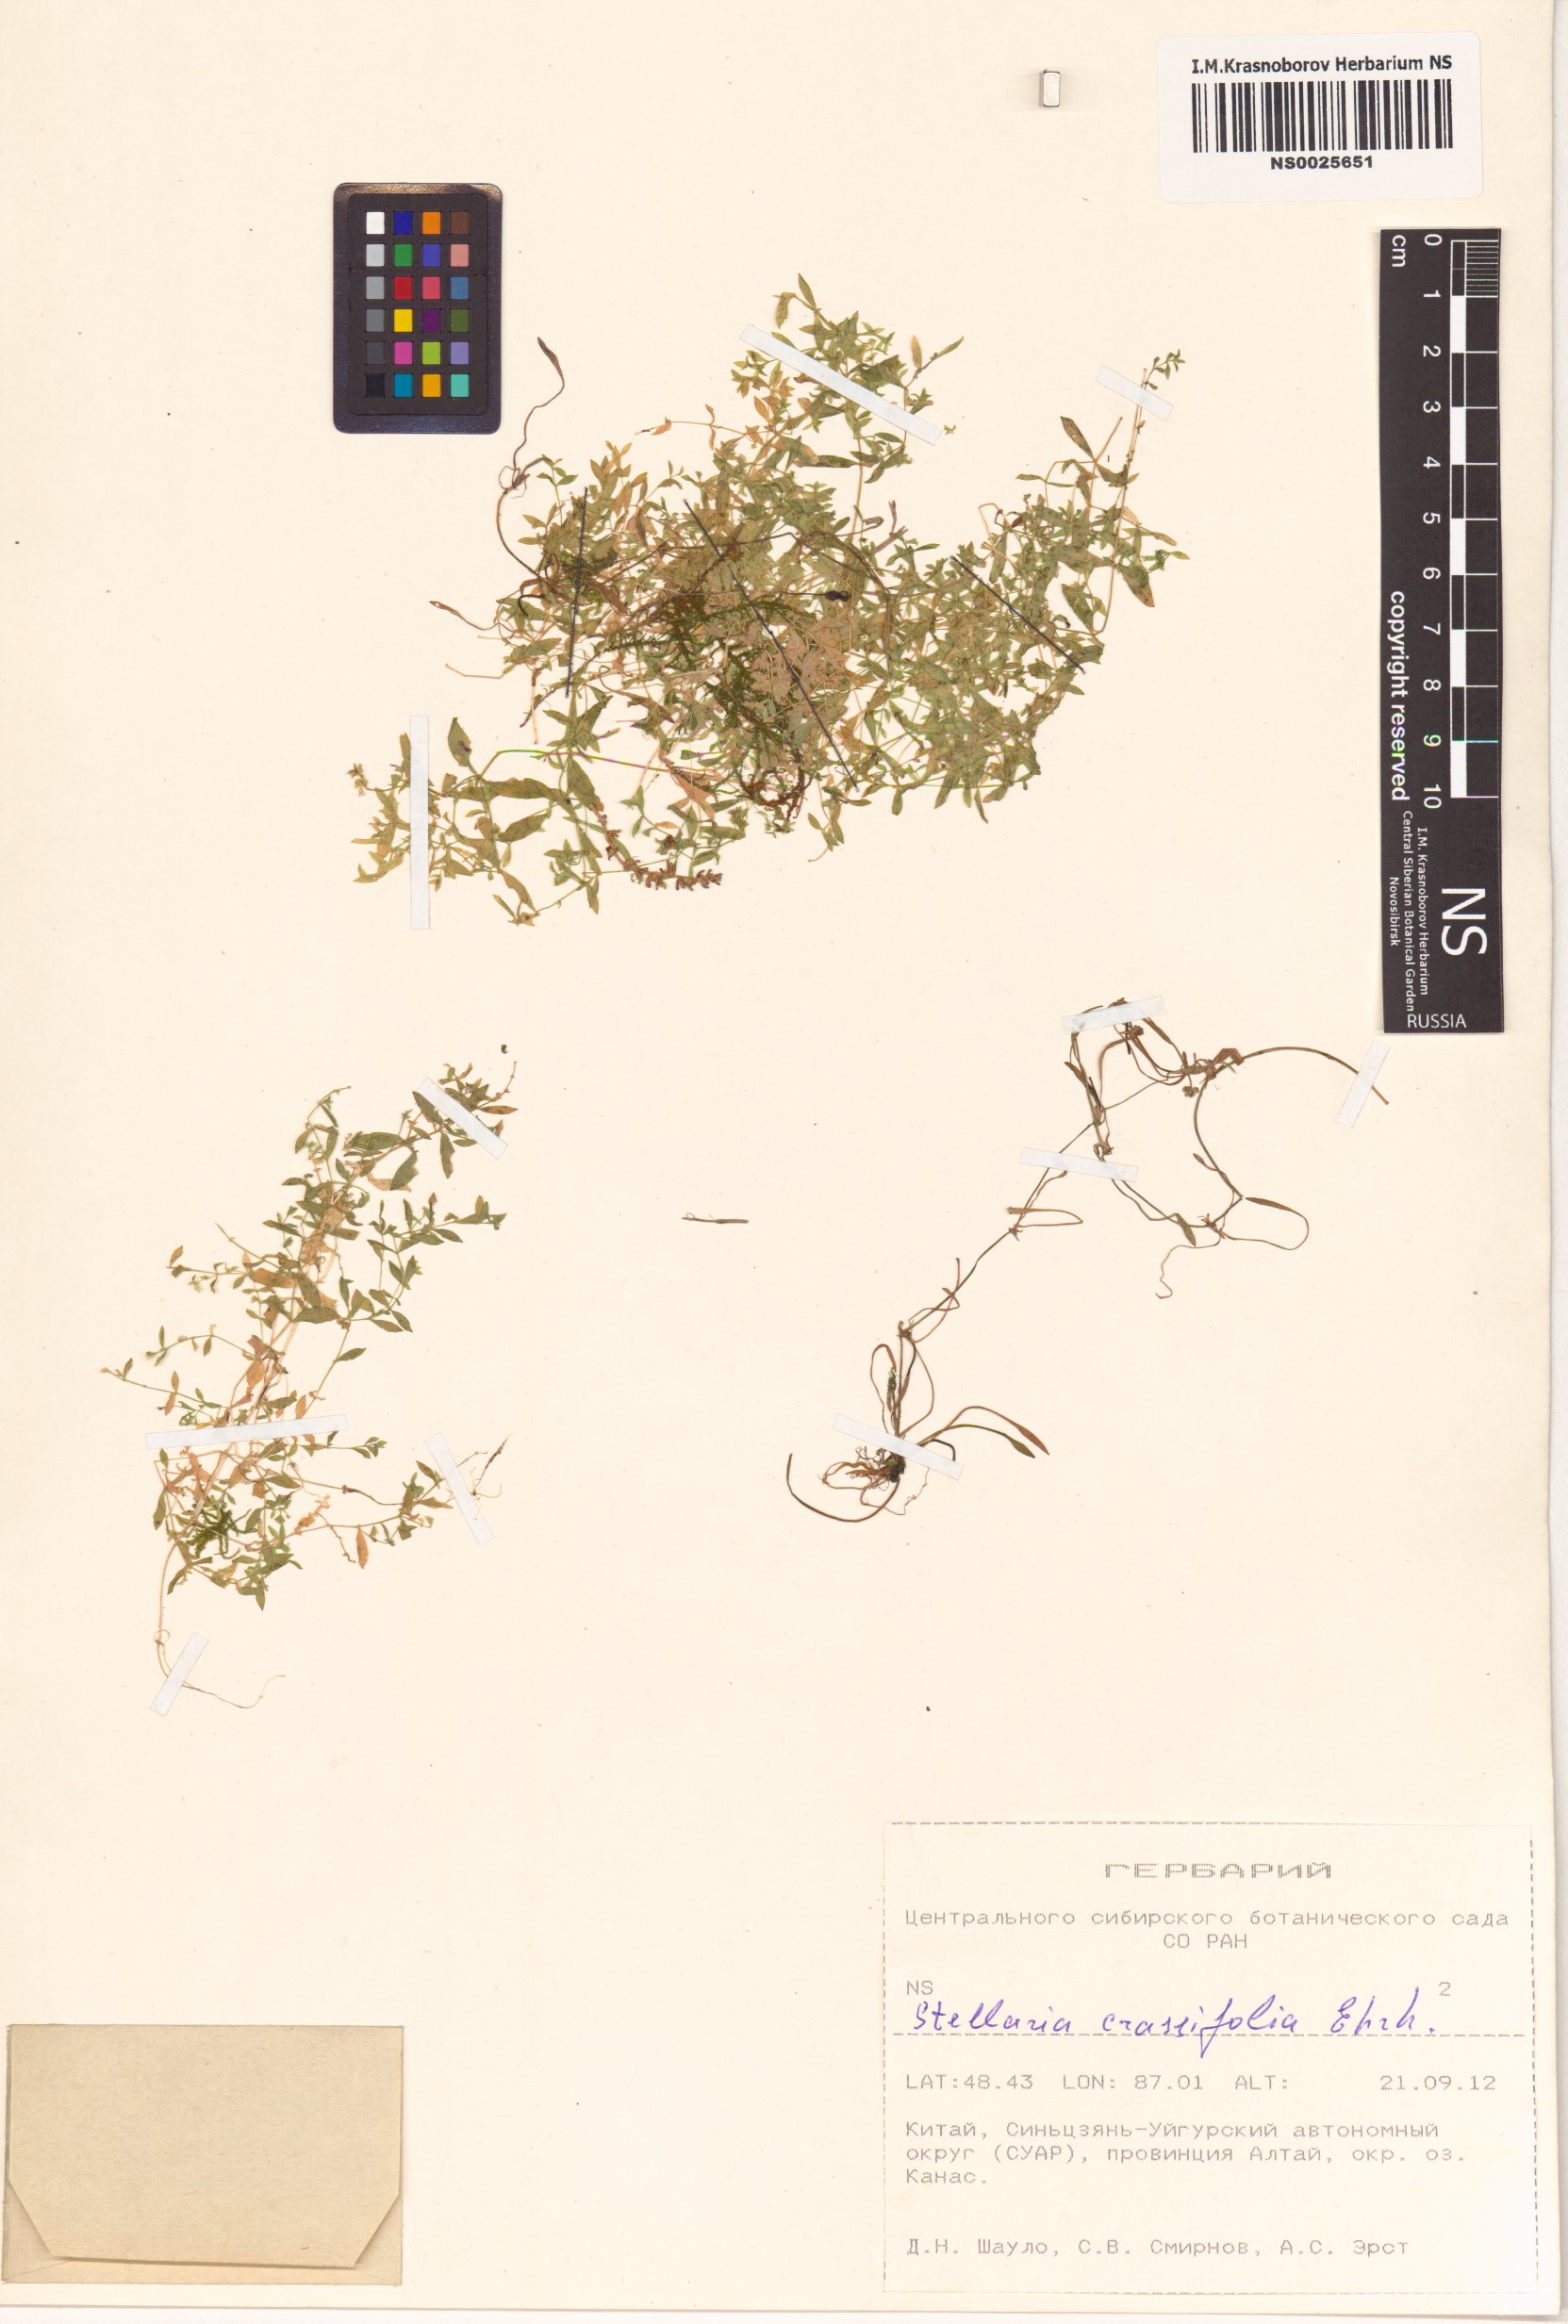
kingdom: Plantae
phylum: Tracheophyta
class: Magnoliopsida
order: Caryophyllales
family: Caryophyllaceae
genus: Stellaria
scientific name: Stellaria crassifolia
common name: Fleshy starwort
